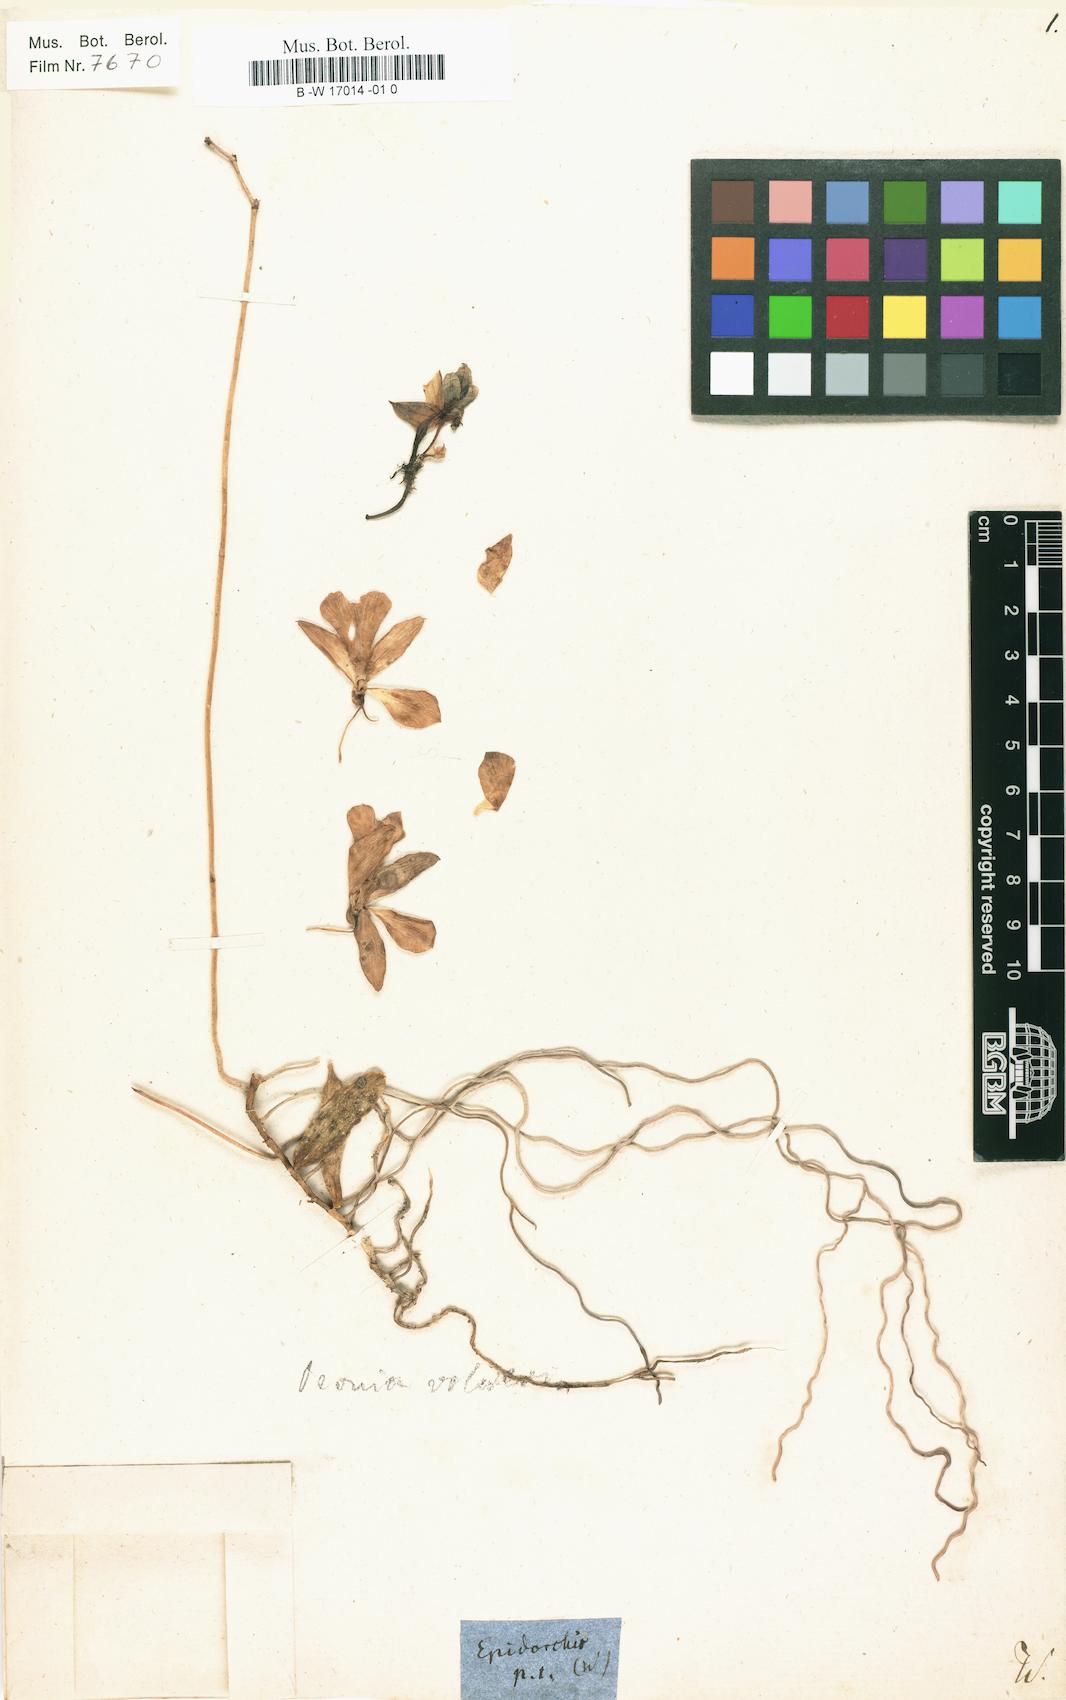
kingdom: Plantae
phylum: Tracheophyta
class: Liliopsida
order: Asparagales
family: Orchidaceae
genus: Epidorchis
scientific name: Epidorchis
